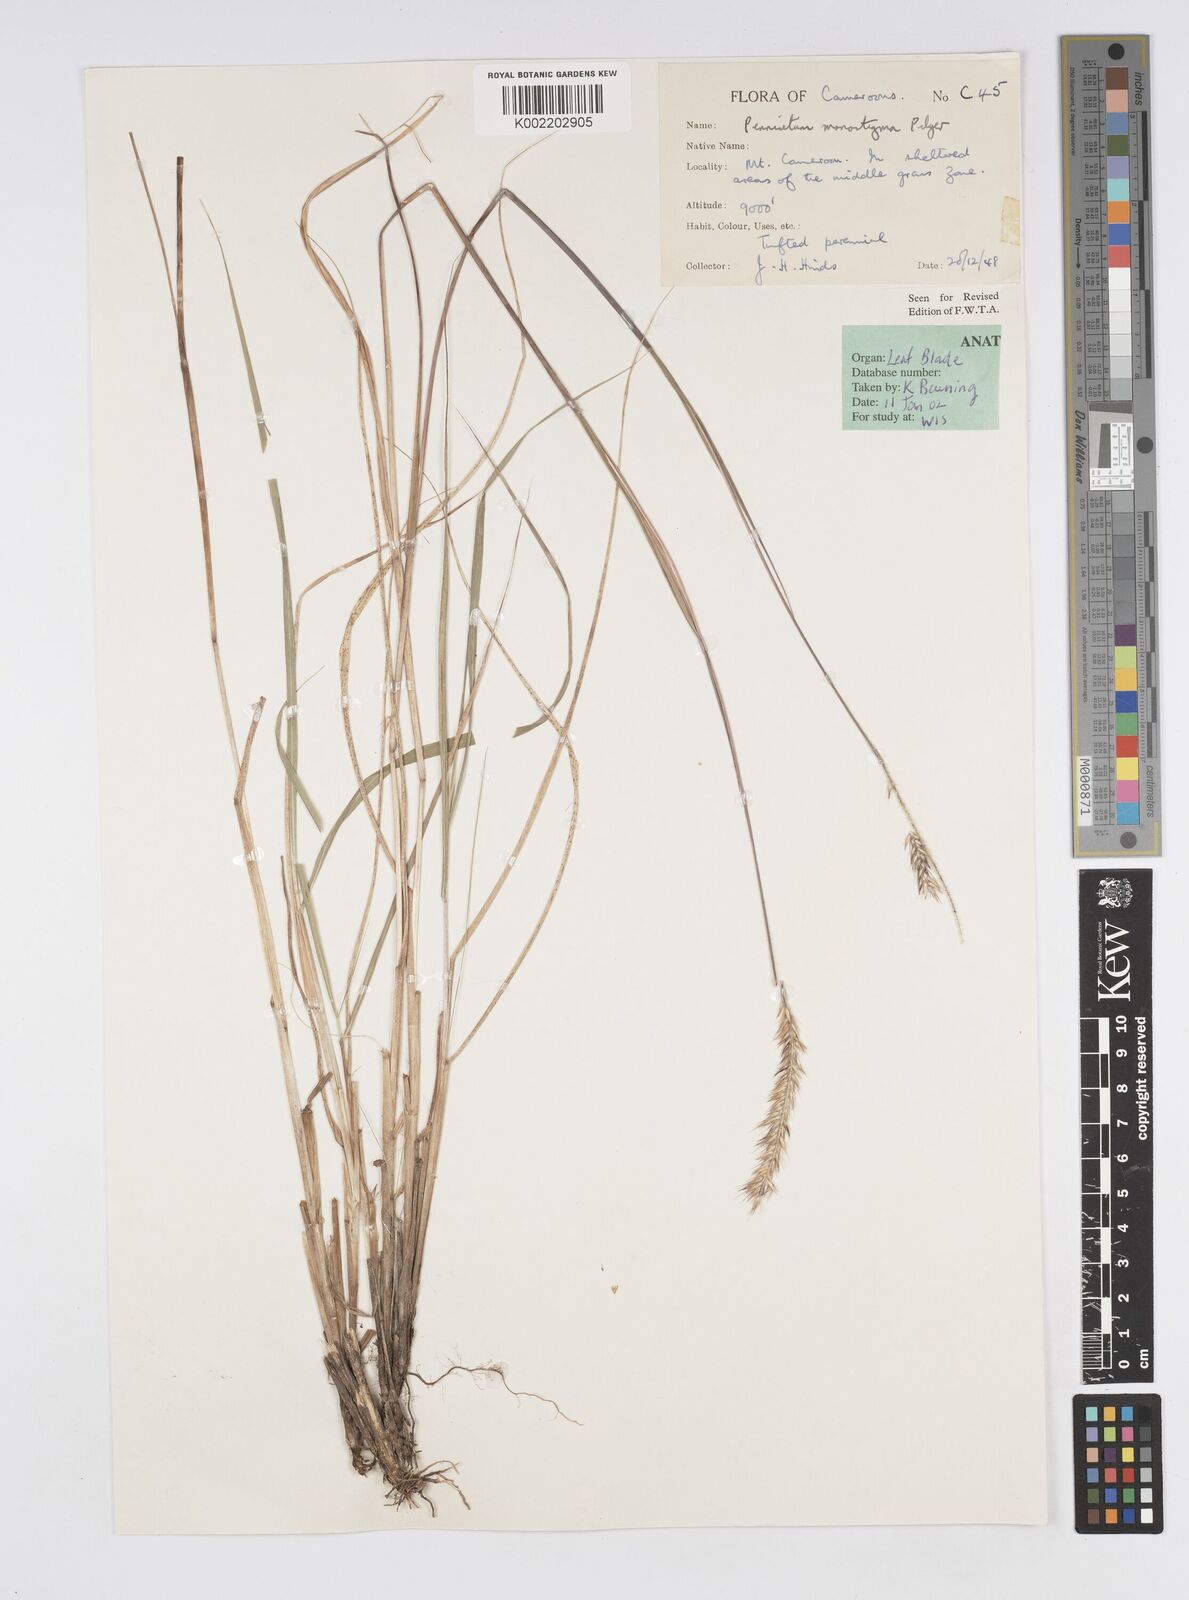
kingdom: Plantae
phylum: Tracheophyta
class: Liliopsida
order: Poales
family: Poaceae
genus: Cenchrus
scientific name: Cenchrus monostigma
